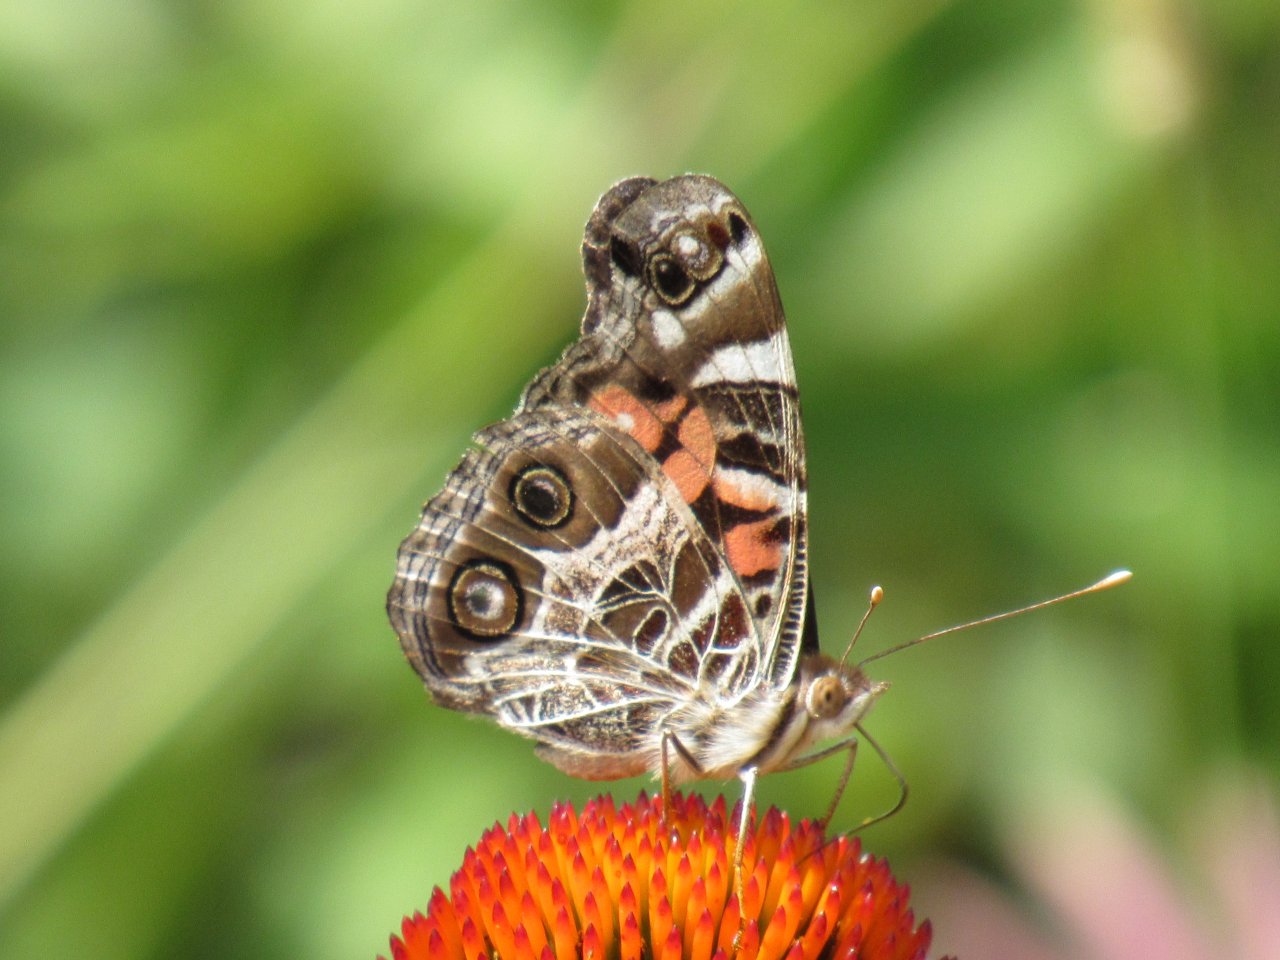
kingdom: Animalia
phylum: Arthropoda
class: Insecta
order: Lepidoptera
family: Nymphalidae
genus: Vanessa
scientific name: Vanessa virginiensis
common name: American Lady
